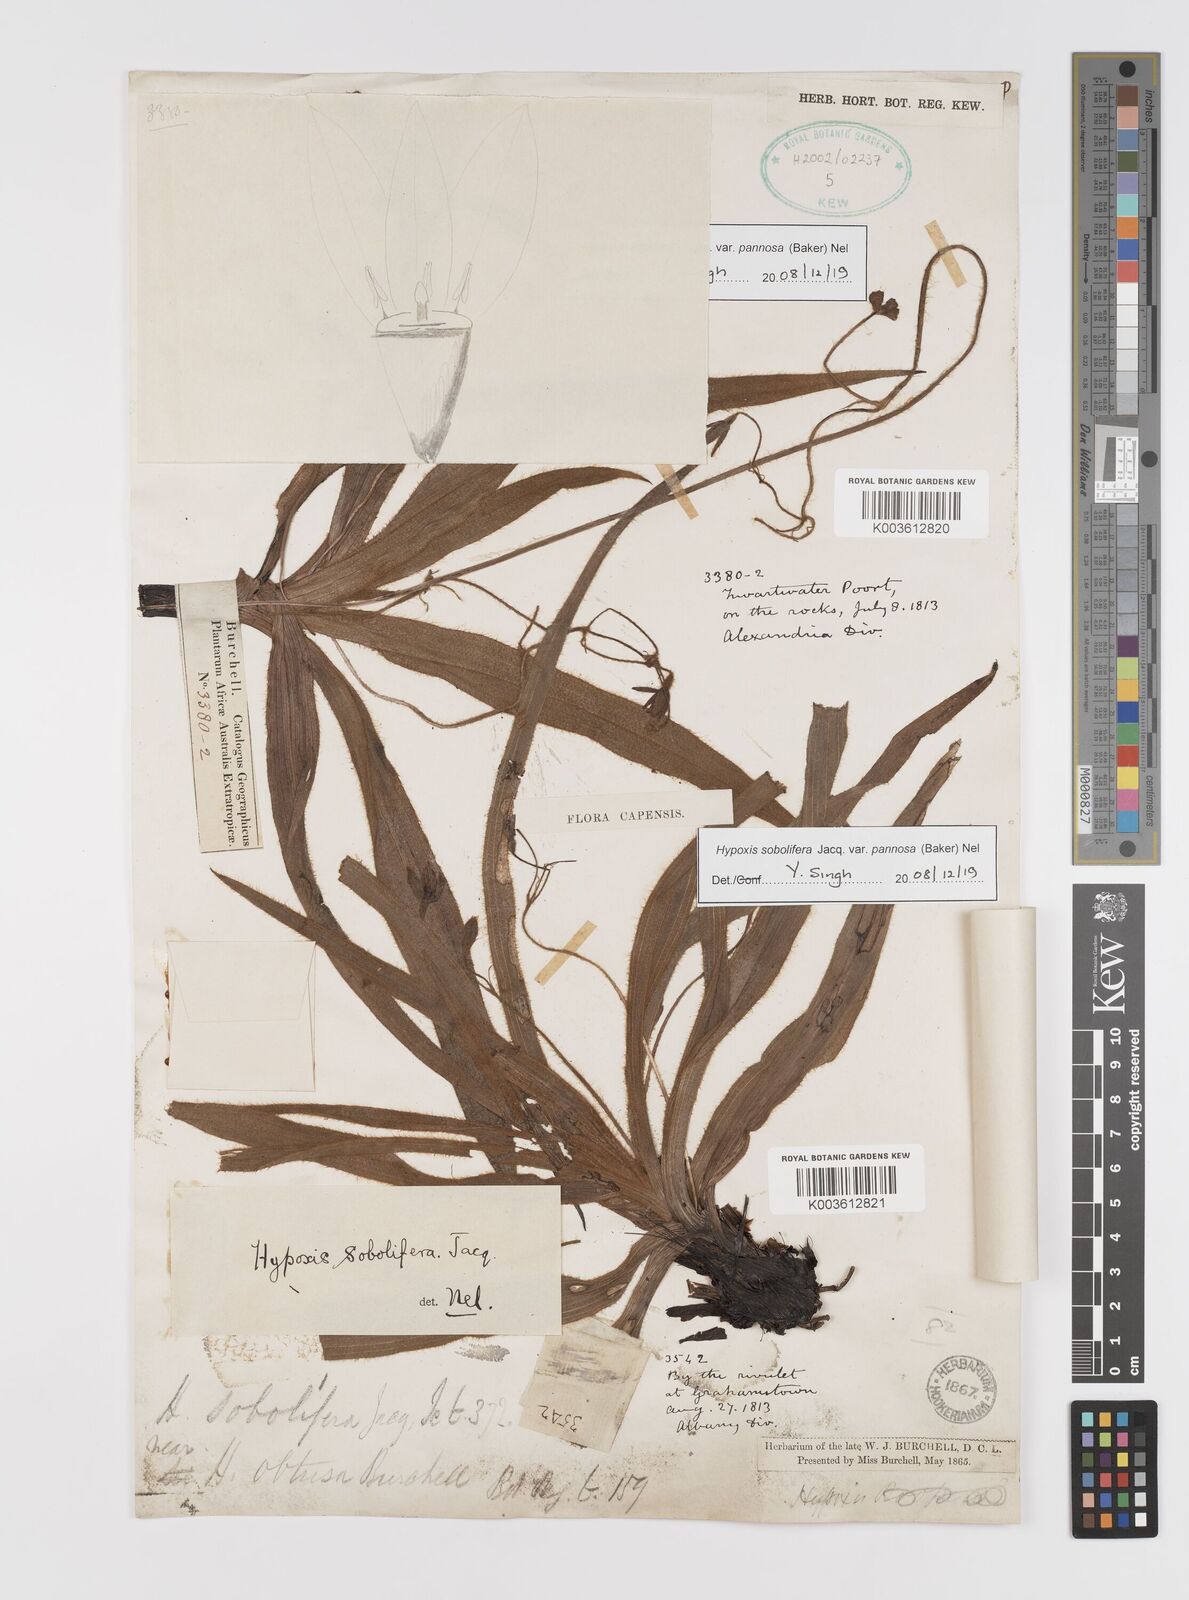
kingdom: Plantae
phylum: Tracheophyta
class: Liliopsida
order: Asparagales
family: Hypoxidaceae
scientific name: Hypoxidaceae
